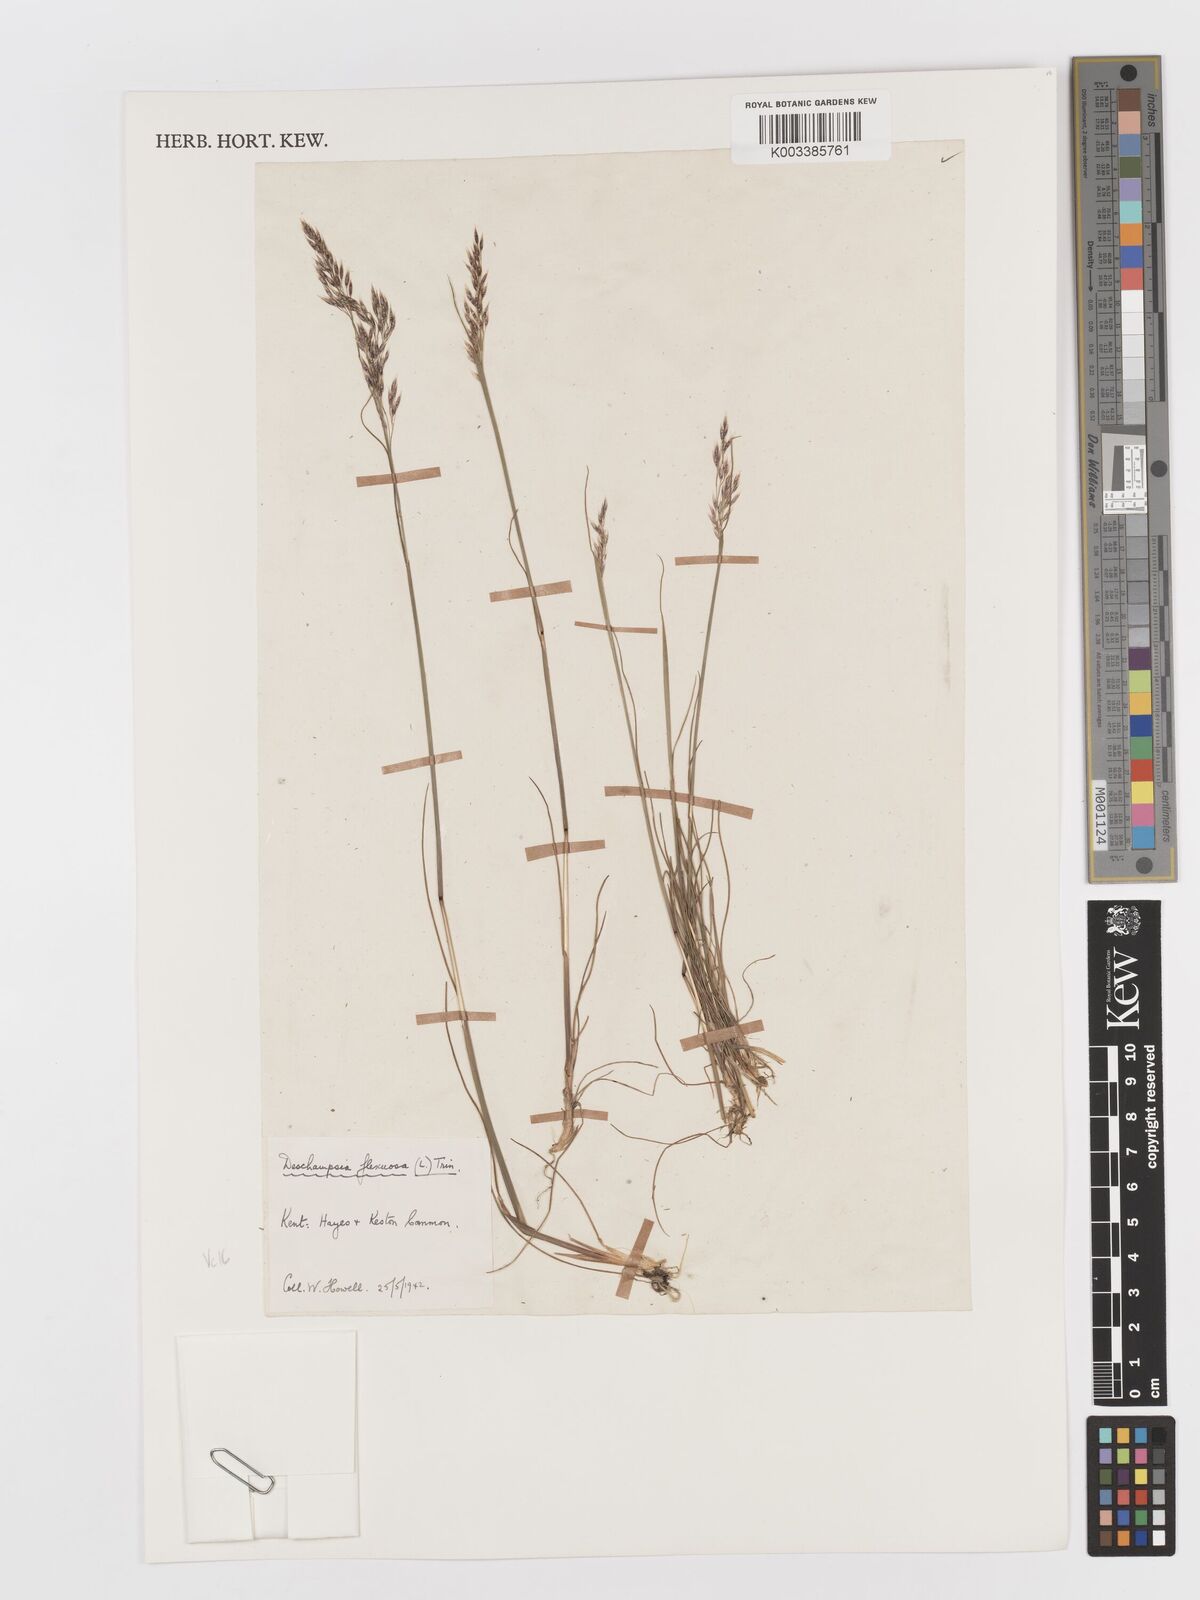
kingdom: Plantae
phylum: Tracheophyta
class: Liliopsida
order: Poales
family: Poaceae
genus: Avenella
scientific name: Avenella flexuosa
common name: Wavy hairgrass
